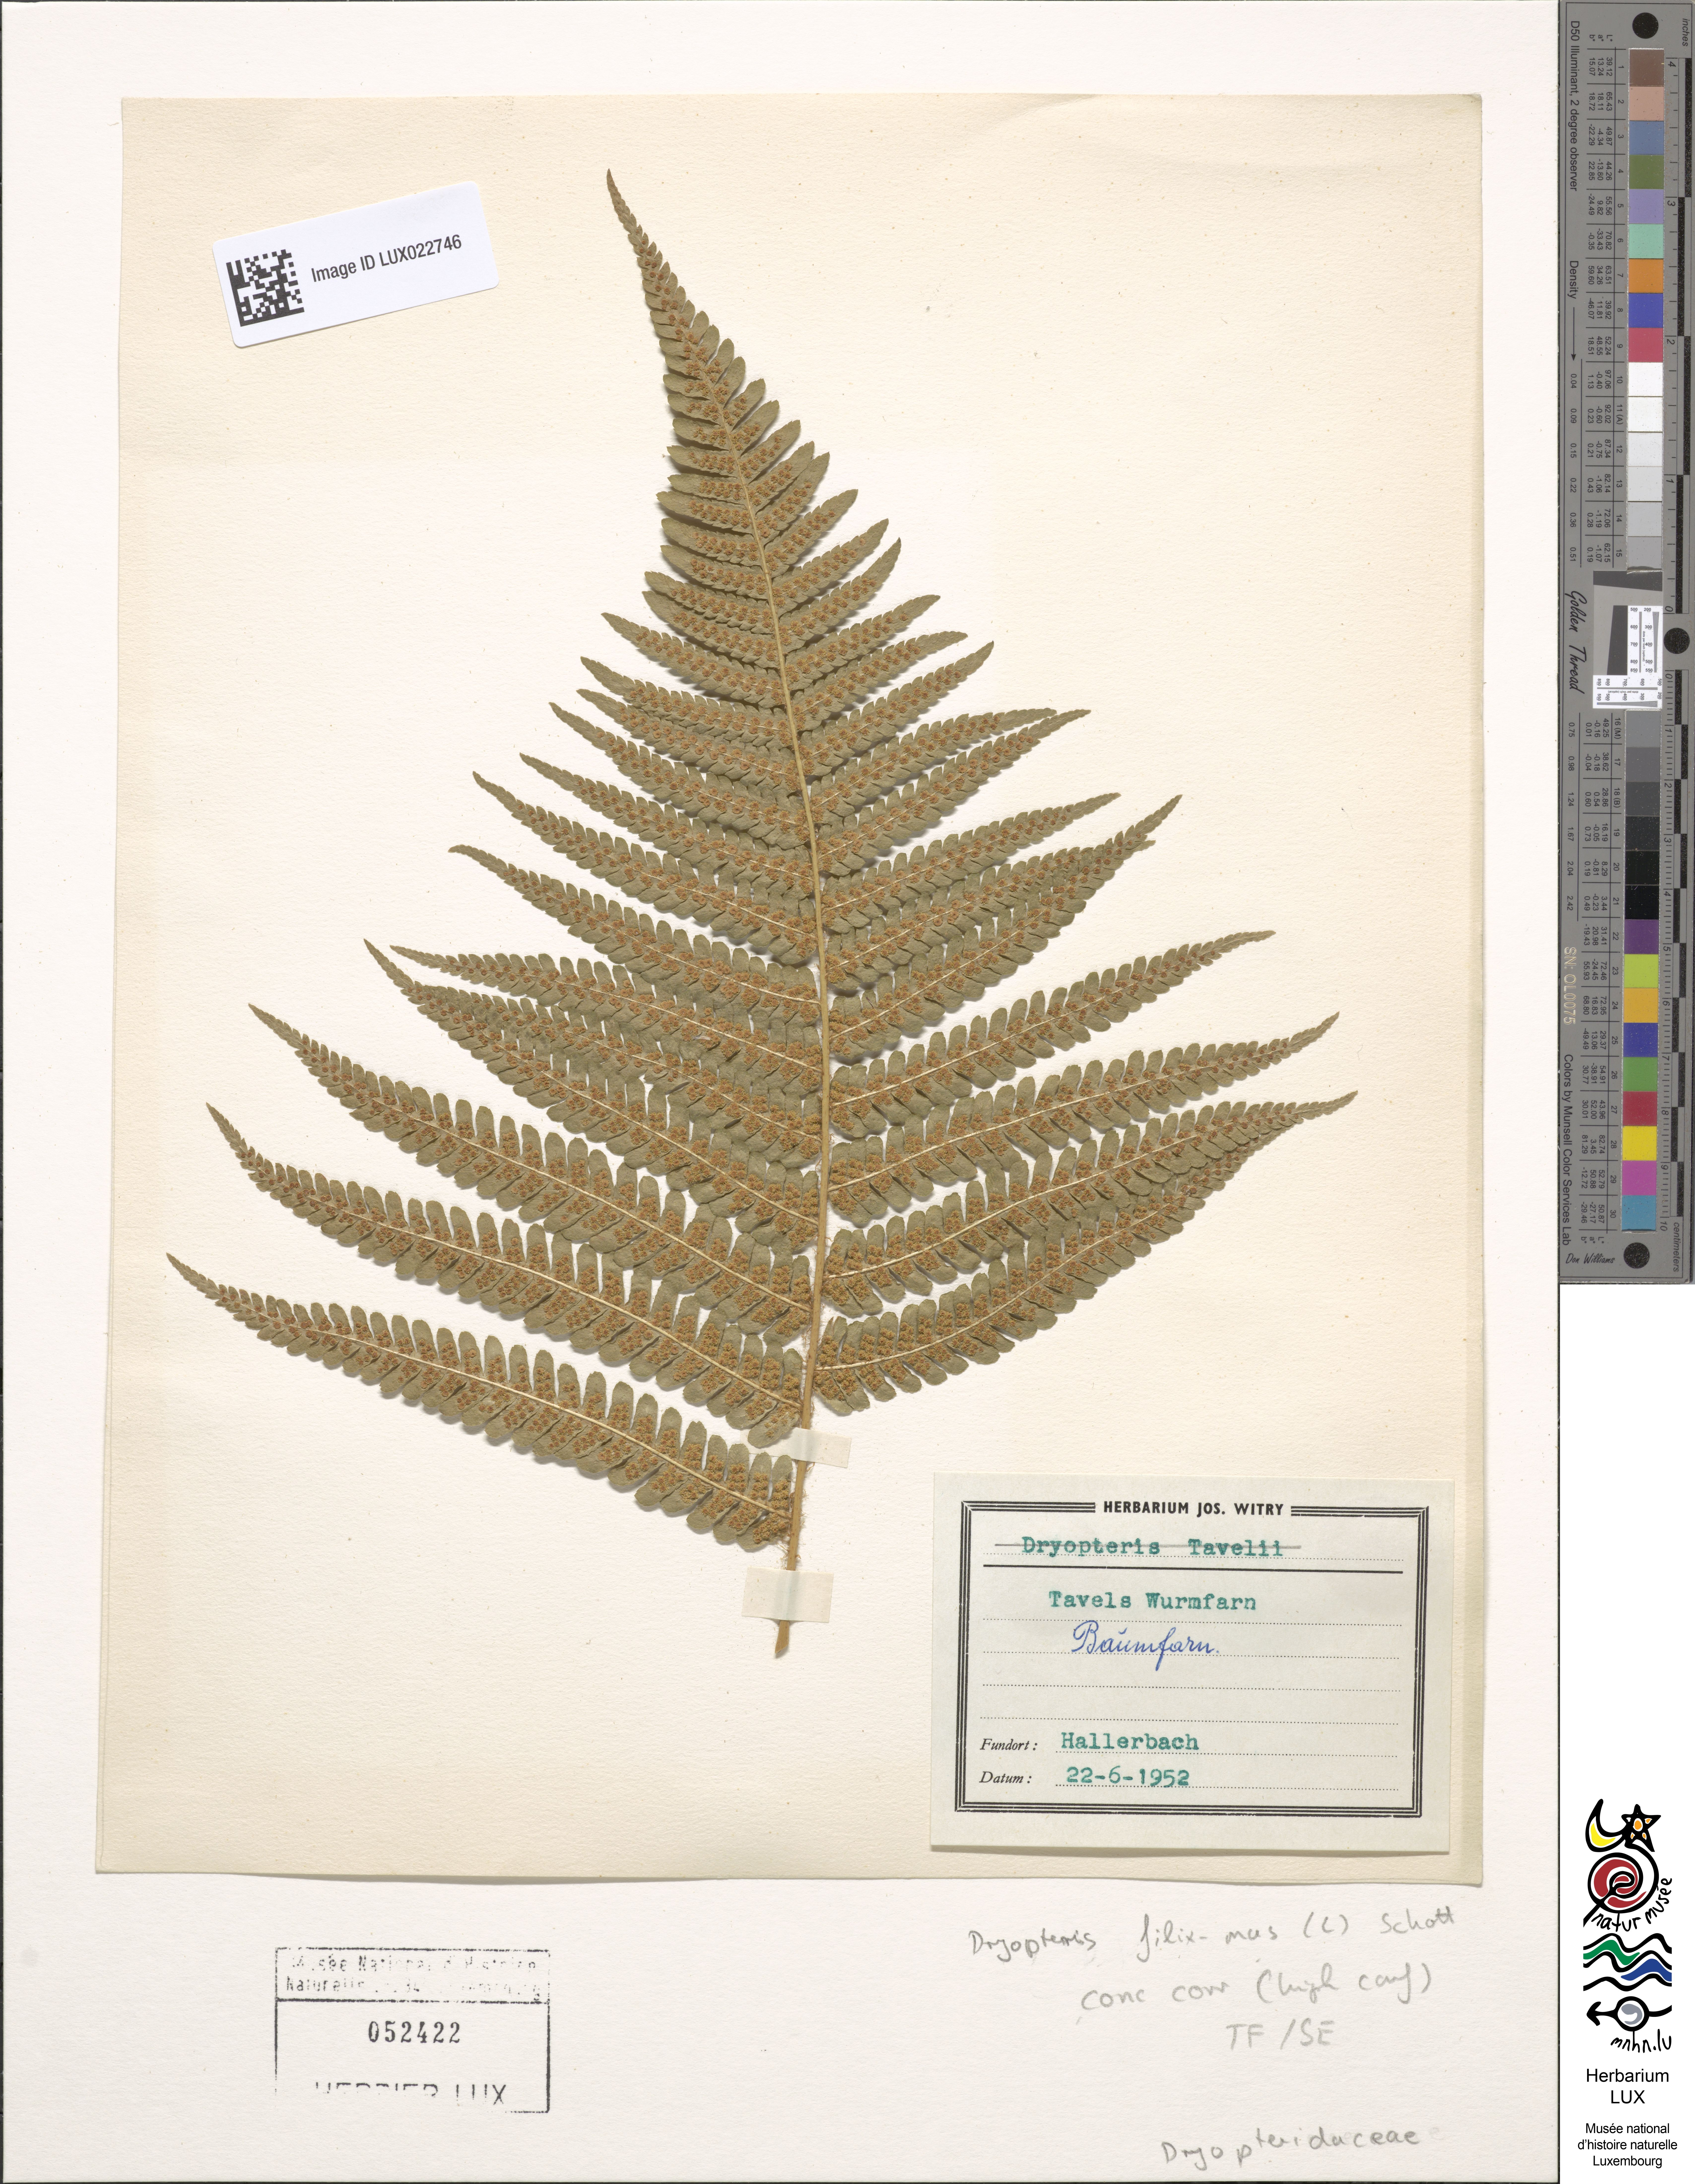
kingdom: Plantae
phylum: Tracheophyta
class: Polypodiopsida
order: Polypodiales
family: Dryopteridaceae
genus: Dryopteris
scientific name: Dryopteris filix-mas
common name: Male fern
